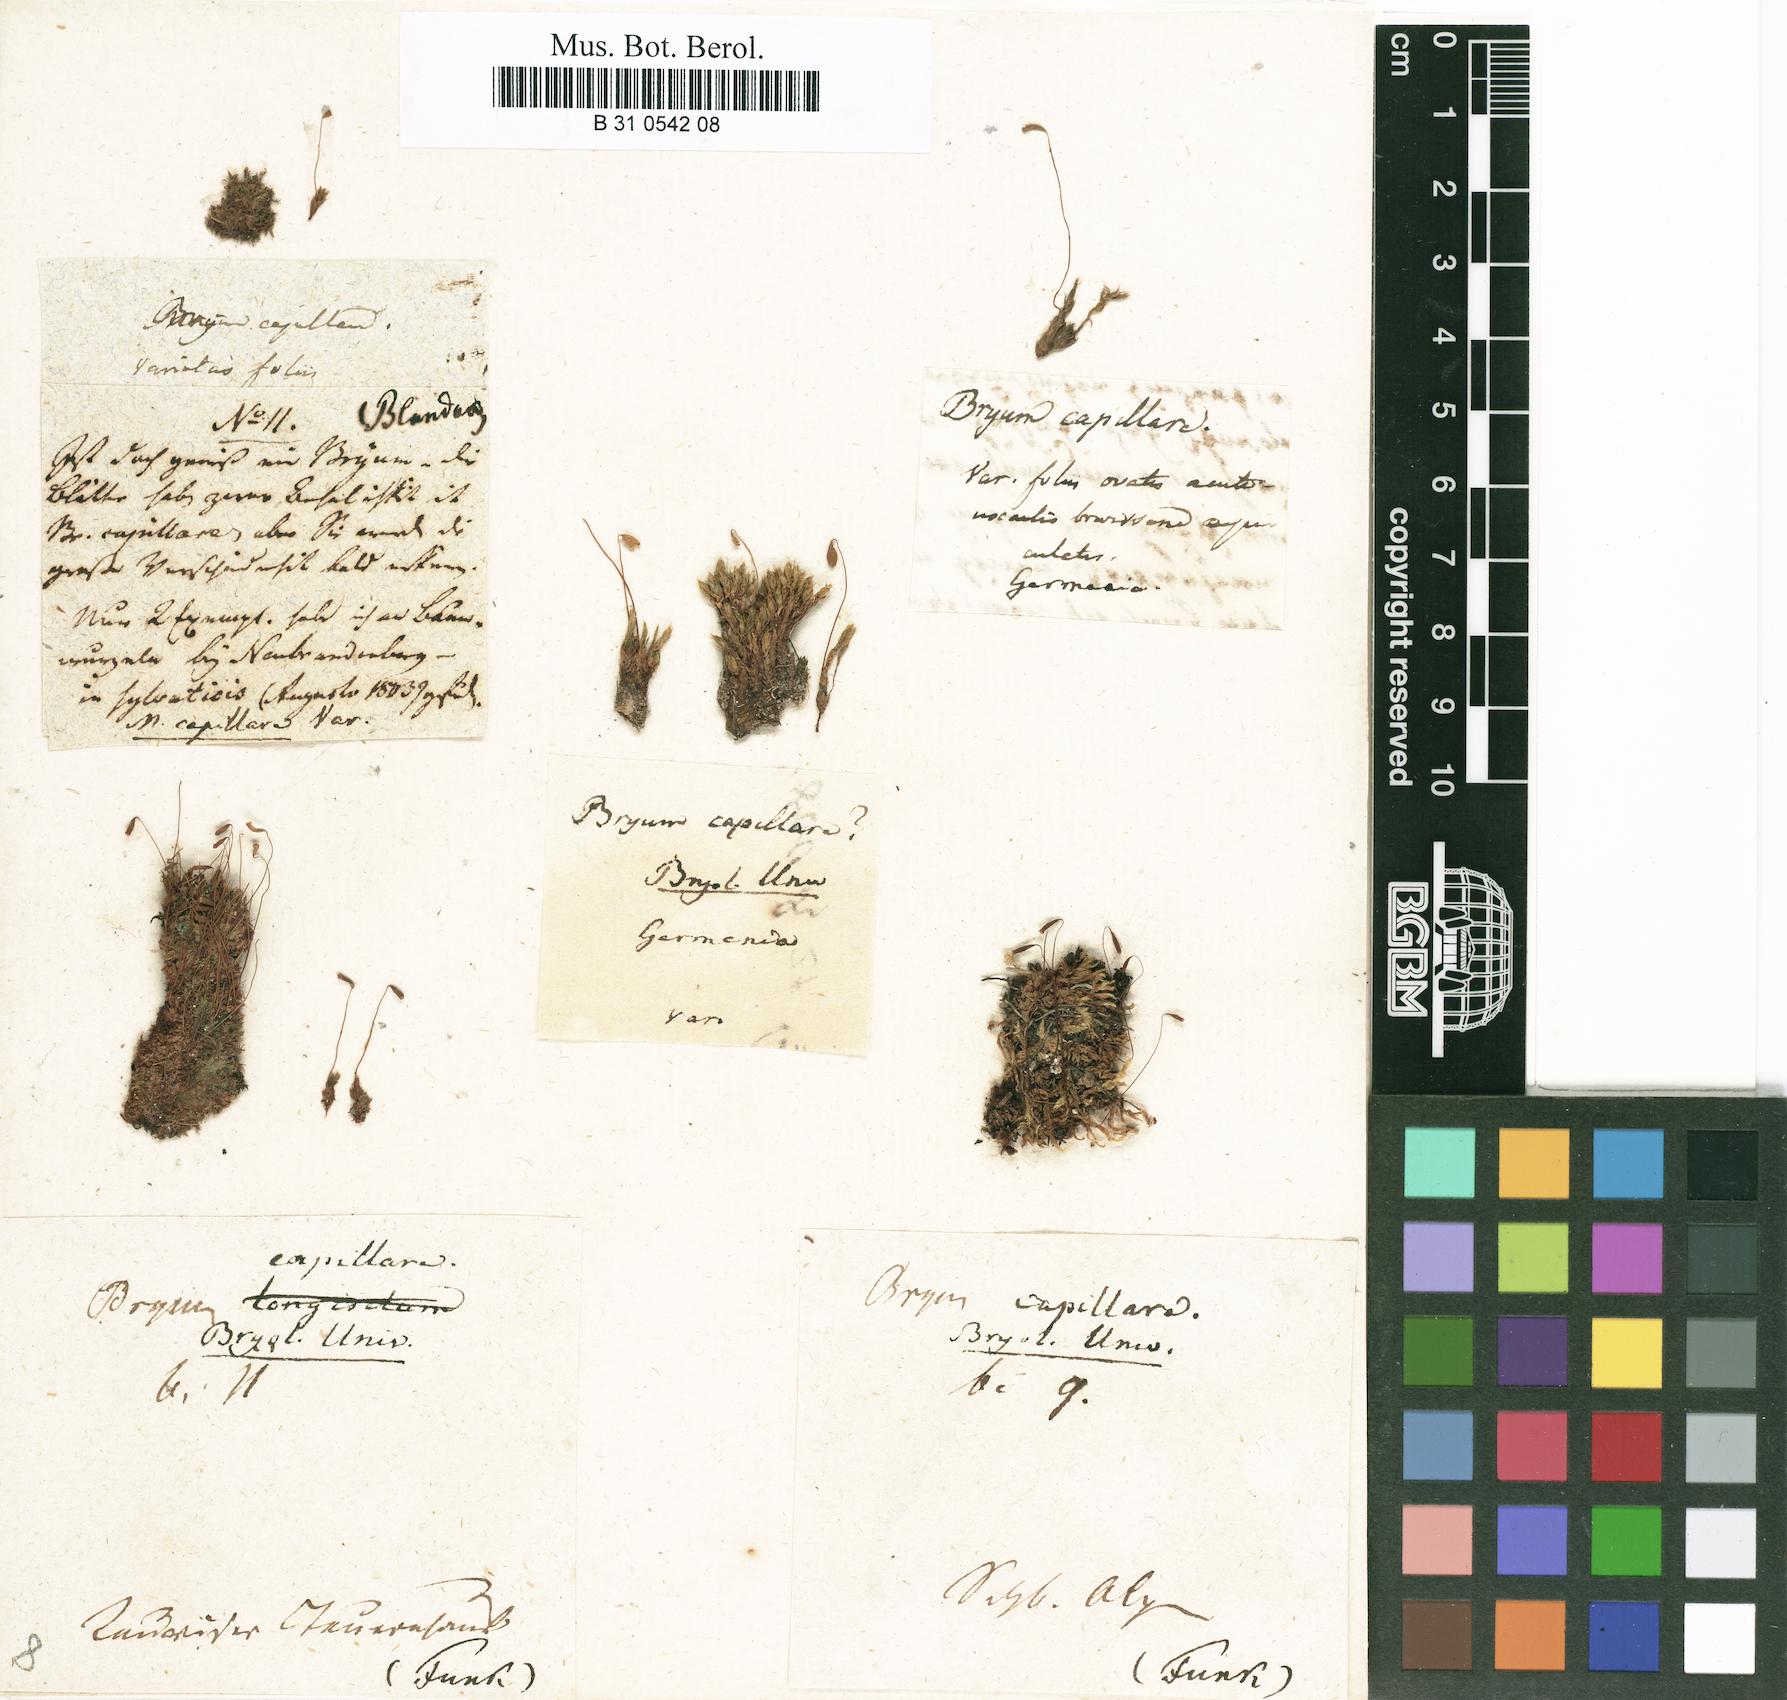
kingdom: Plantae
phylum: Bryophyta
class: Bryopsida
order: Bryales
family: Bryaceae
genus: Rosulabryum
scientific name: Rosulabryum capillare
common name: Capillary thread-moss
